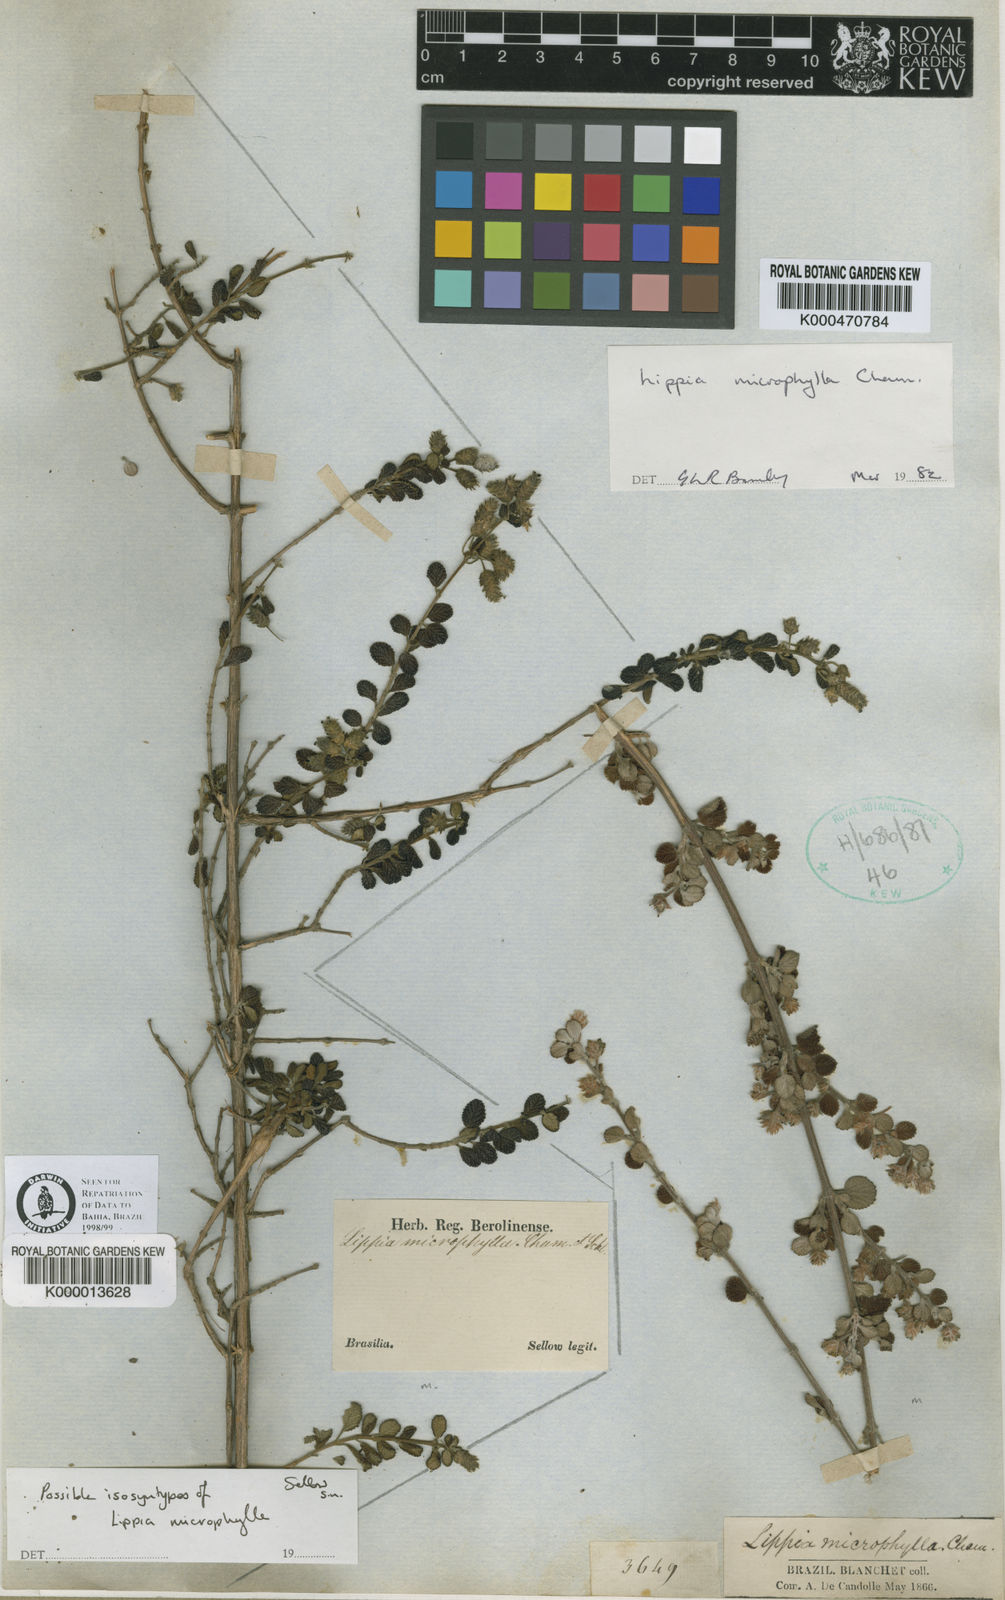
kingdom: Plantae
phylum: Tracheophyta
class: Magnoliopsida
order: Lamiales
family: Verbenaceae
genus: Lippia
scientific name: Lippia origanoides
